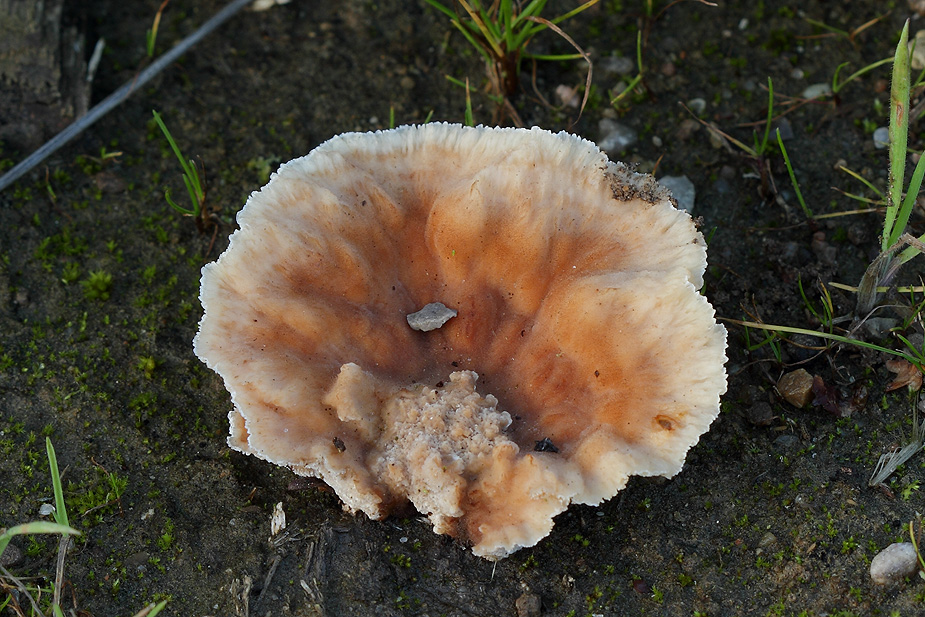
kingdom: Fungi
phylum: Basidiomycota
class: Agaricomycetes
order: Polyporales
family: Podoscyphaceae
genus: Abortiporus
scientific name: Abortiporus biennis
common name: rødmende pjalteporesvamp
